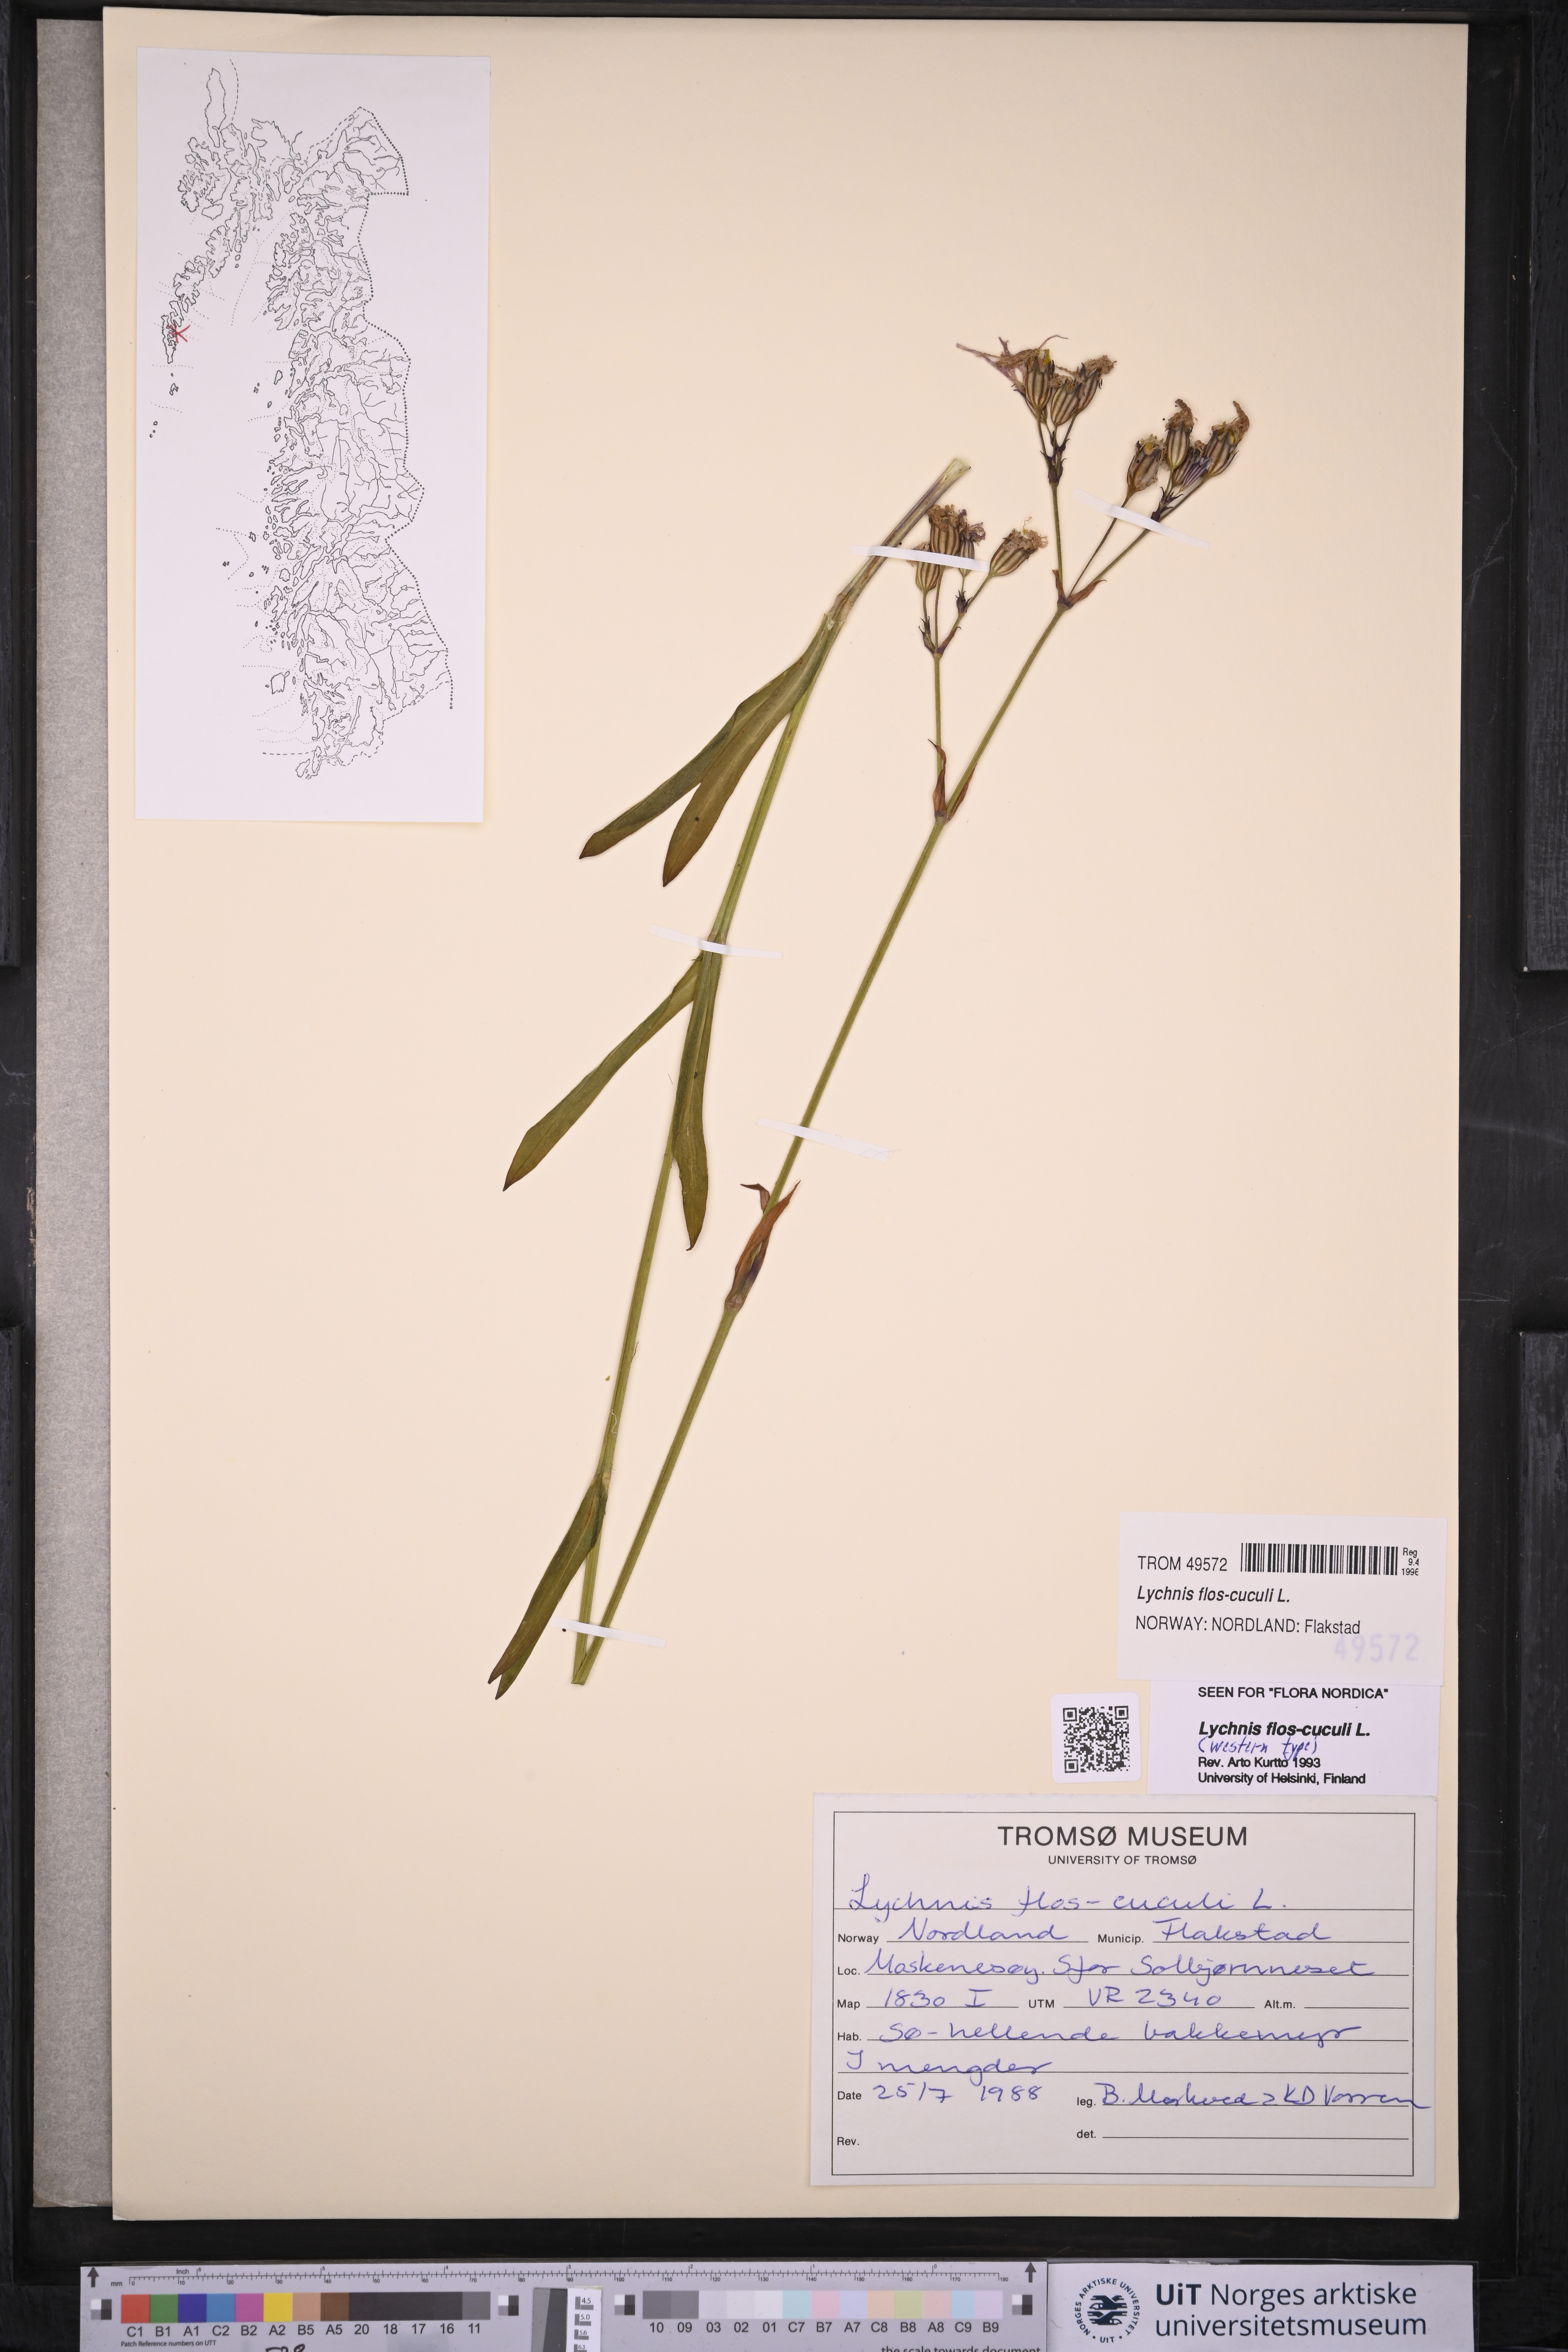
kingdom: Plantae
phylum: Tracheophyta
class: Magnoliopsida
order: Caryophyllales
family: Caryophyllaceae
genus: Silene
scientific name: Silene flos-cuculi
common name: Ragged-robin
